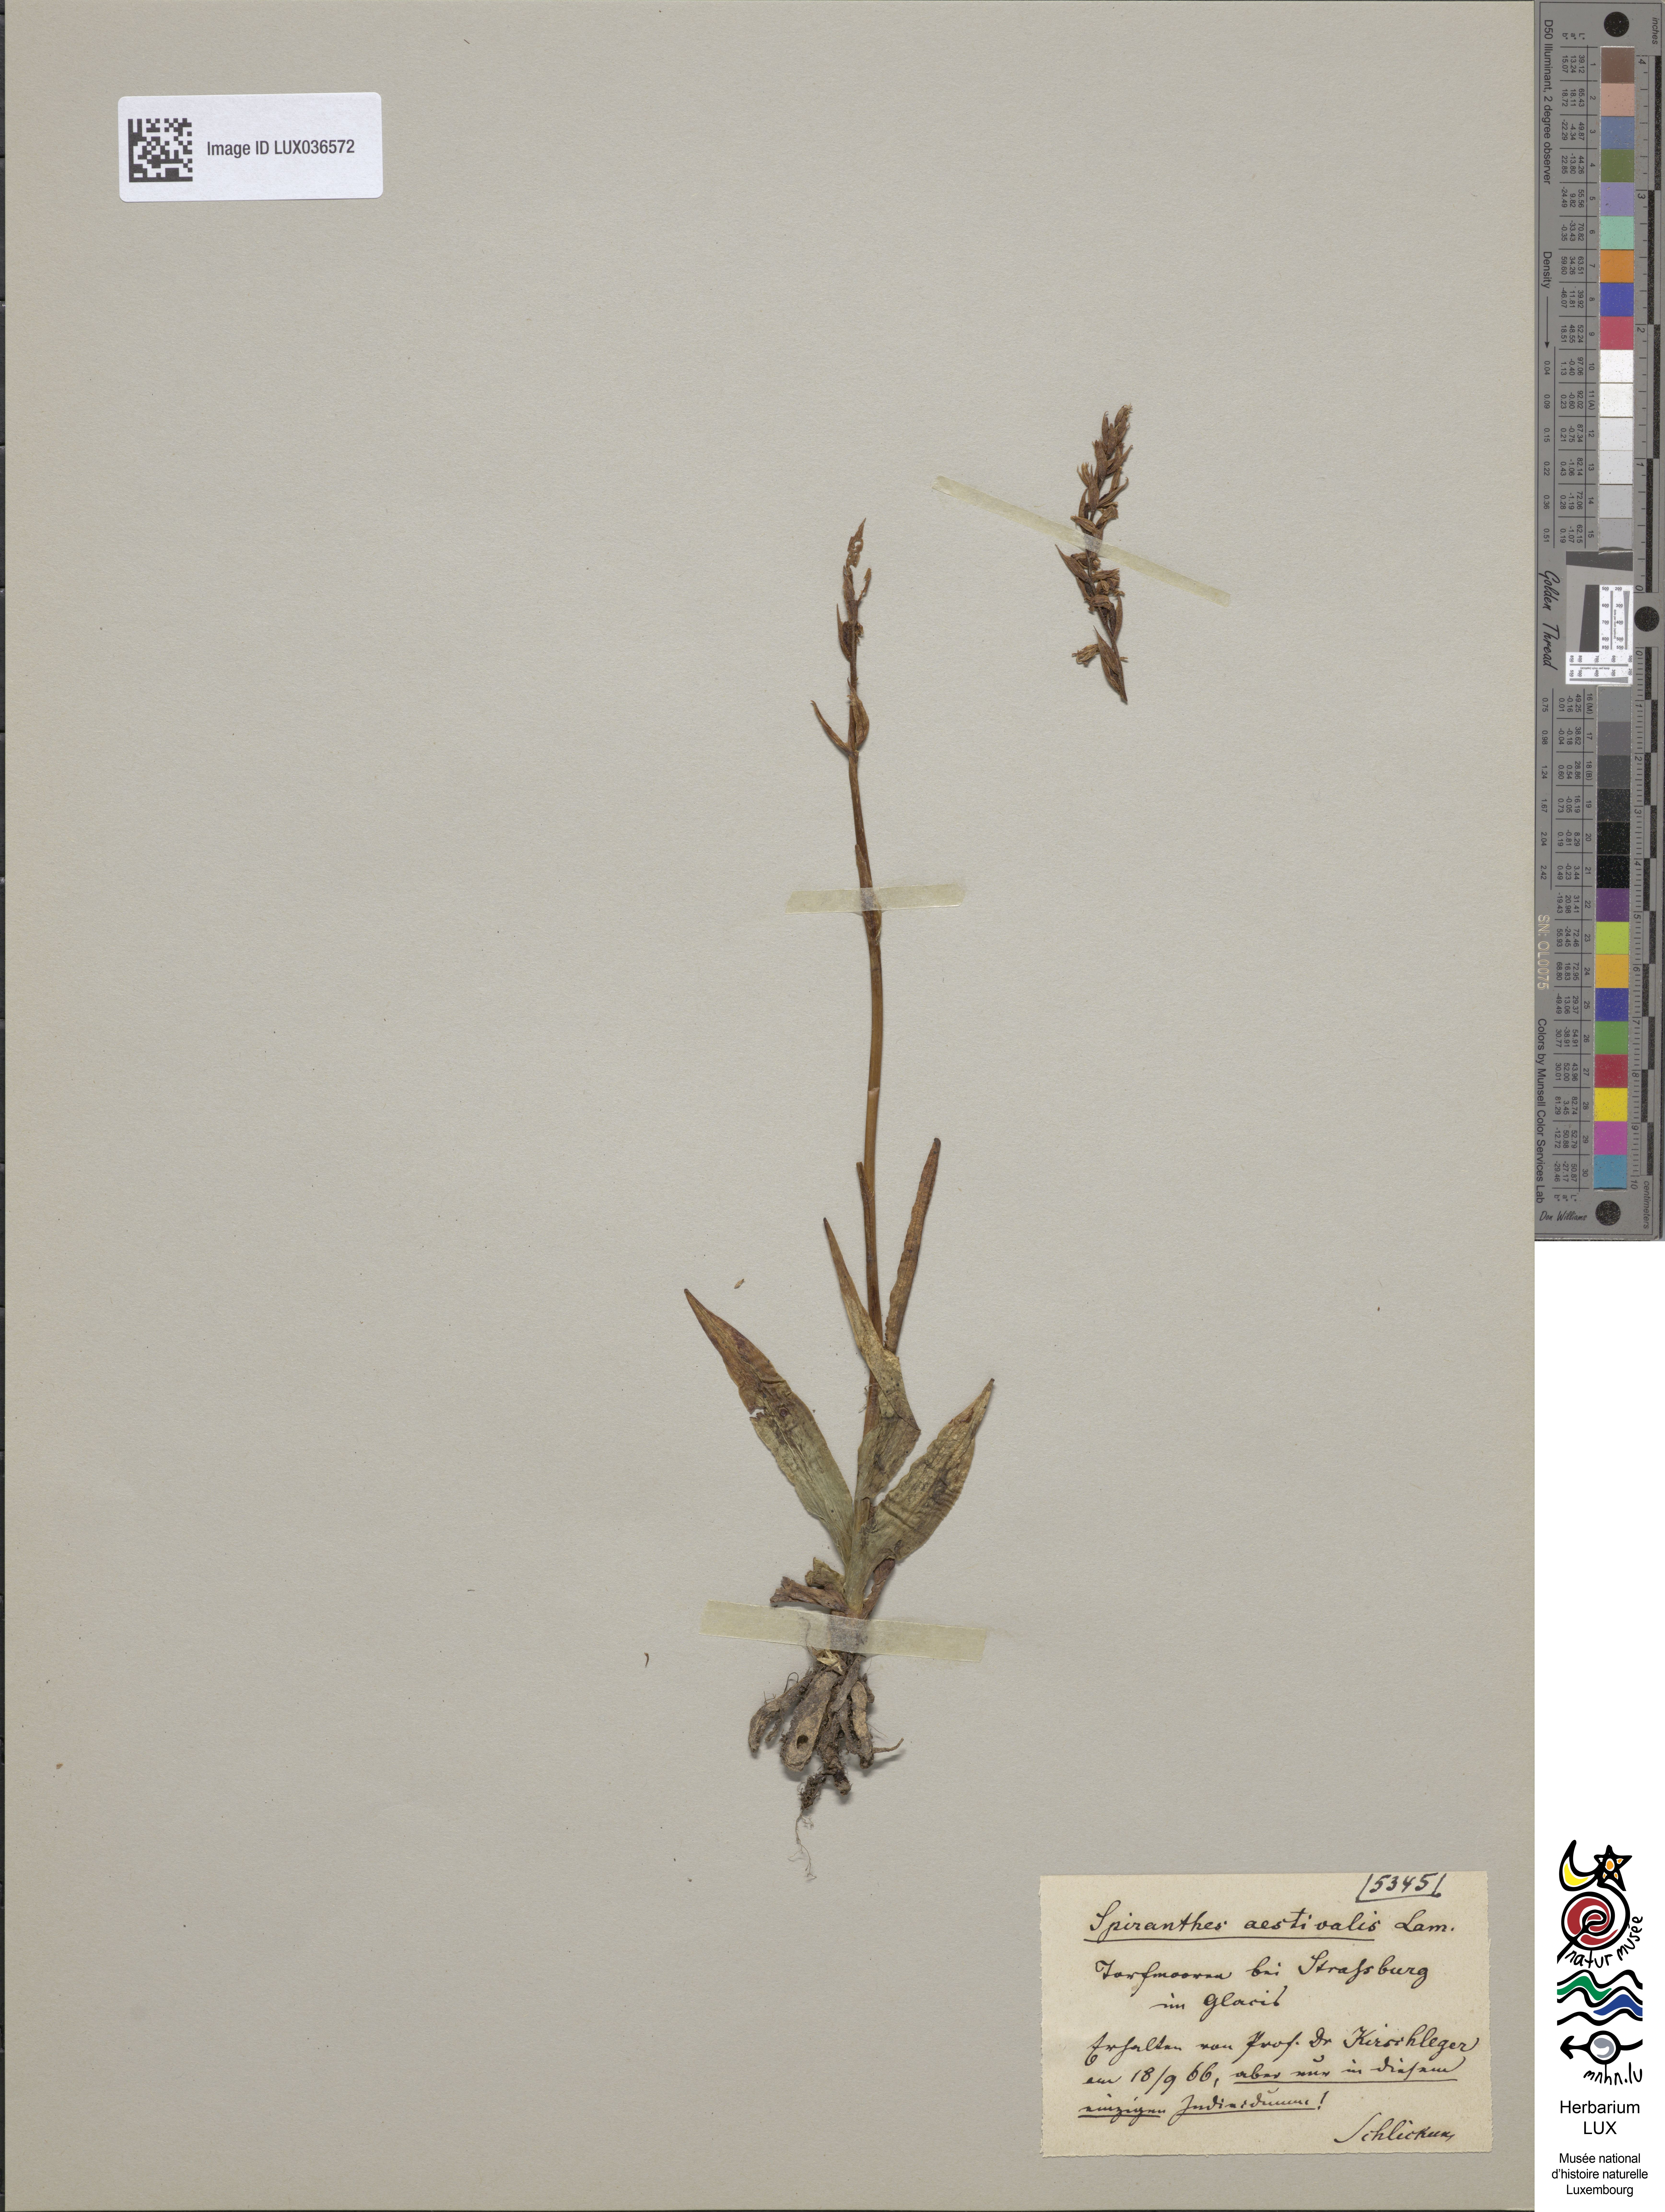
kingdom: Plantae
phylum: Tracheophyta
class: Liliopsida
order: Asparagales
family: Orchidaceae
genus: Spiranthes
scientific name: Spiranthes aestivalis
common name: Summer lady's-tresses
